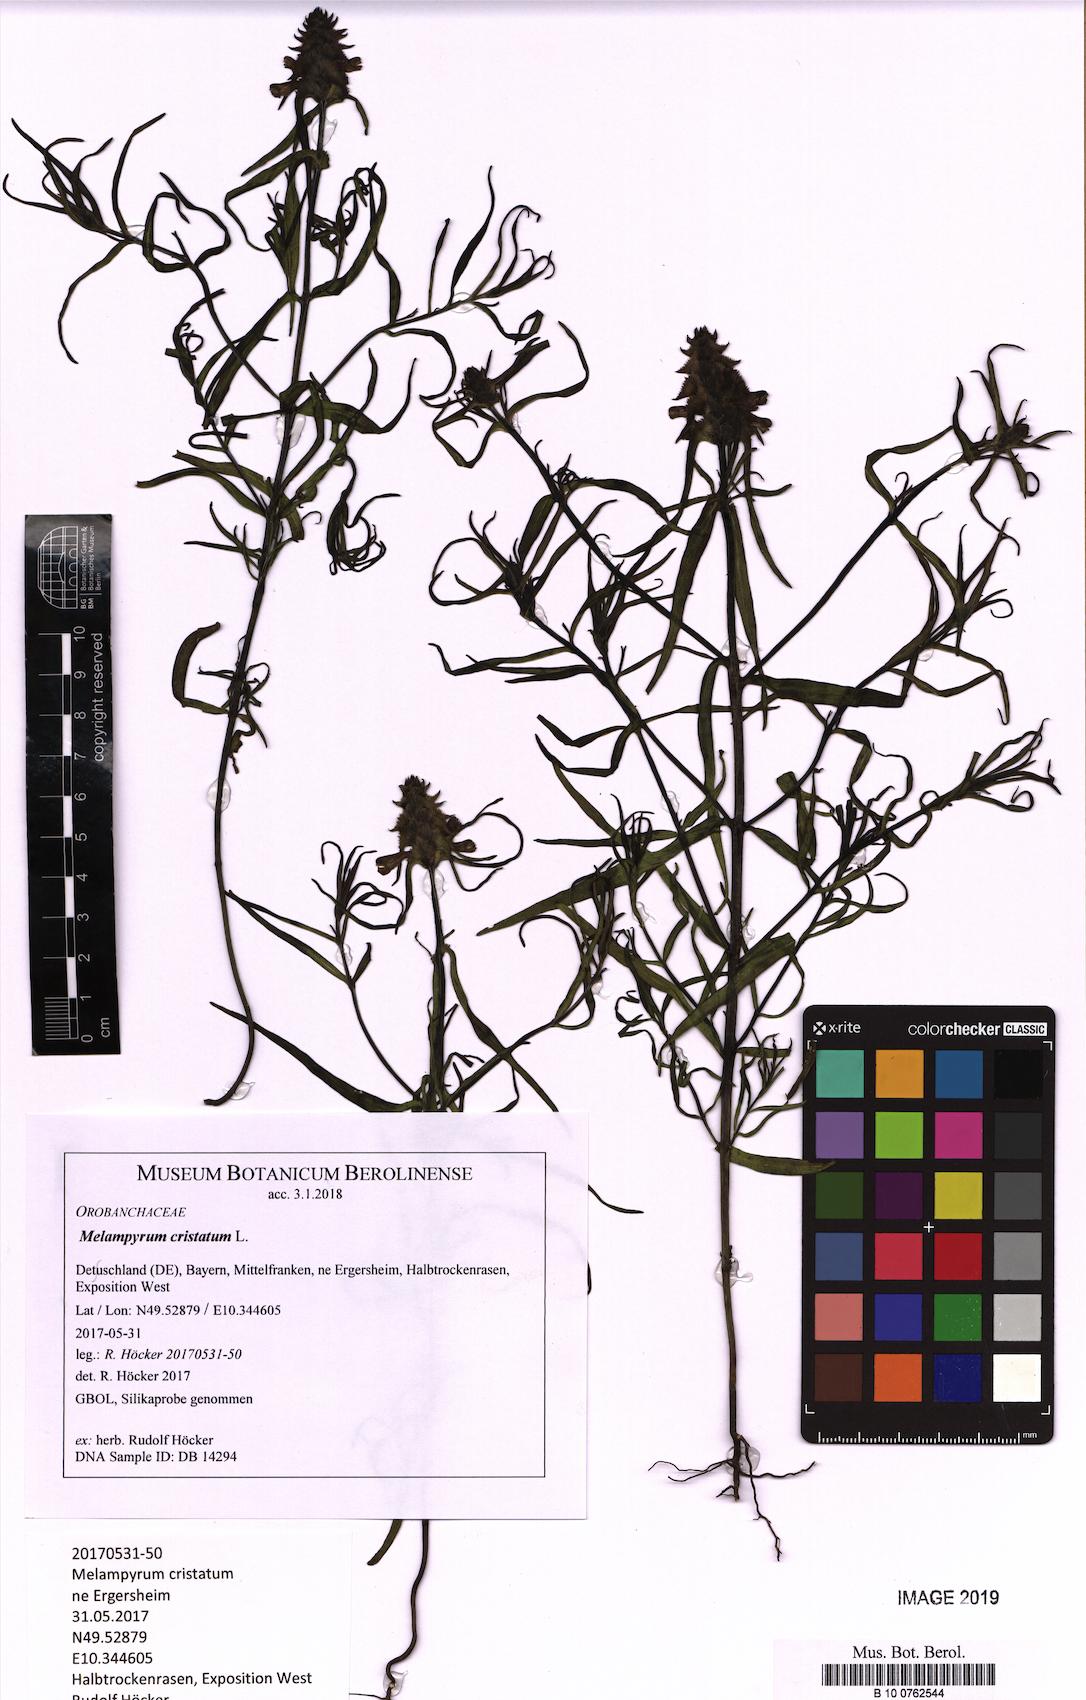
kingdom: Plantae
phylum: Tracheophyta
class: Magnoliopsida
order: Lamiales
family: Orobanchaceae
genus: Melampyrum
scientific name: Melampyrum cristatum
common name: Crested cow-wheat
